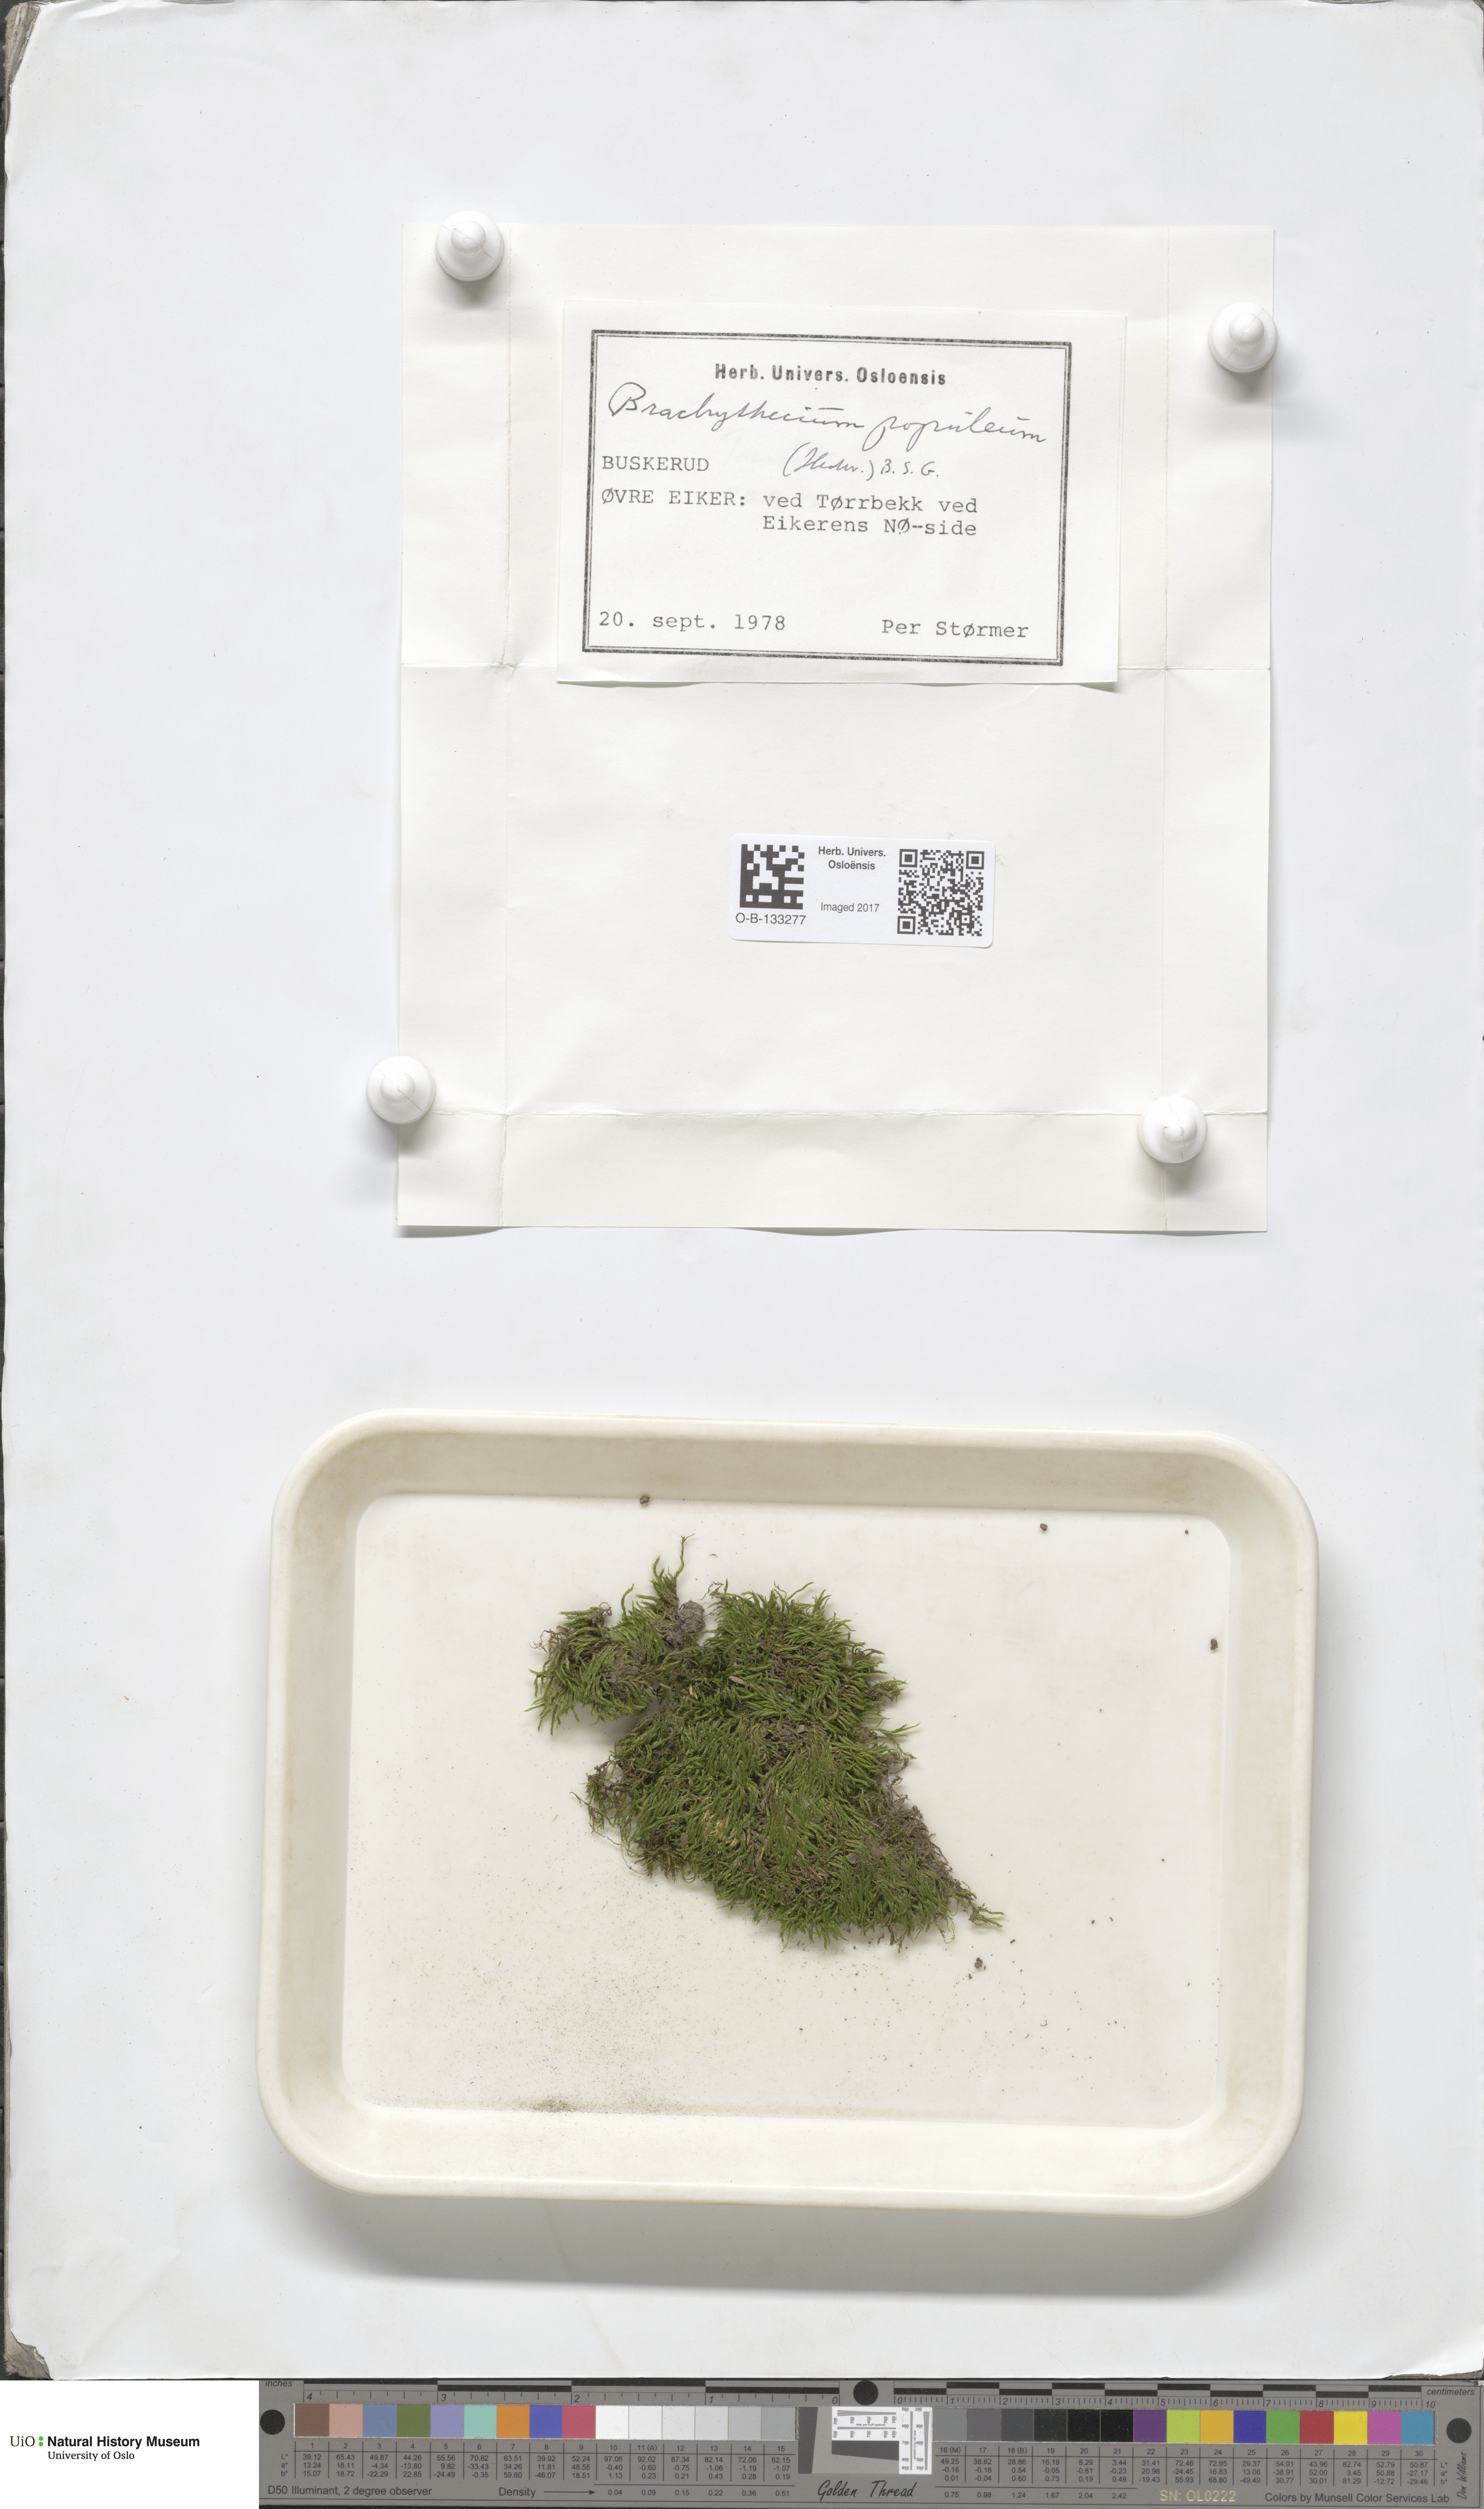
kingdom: Plantae
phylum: Bryophyta
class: Bryopsida
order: Hypnales
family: Brachytheciaceae
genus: Sciuro-hypnum
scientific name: Sciuro-hypnum plumosum
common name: Rusty feather-moss
